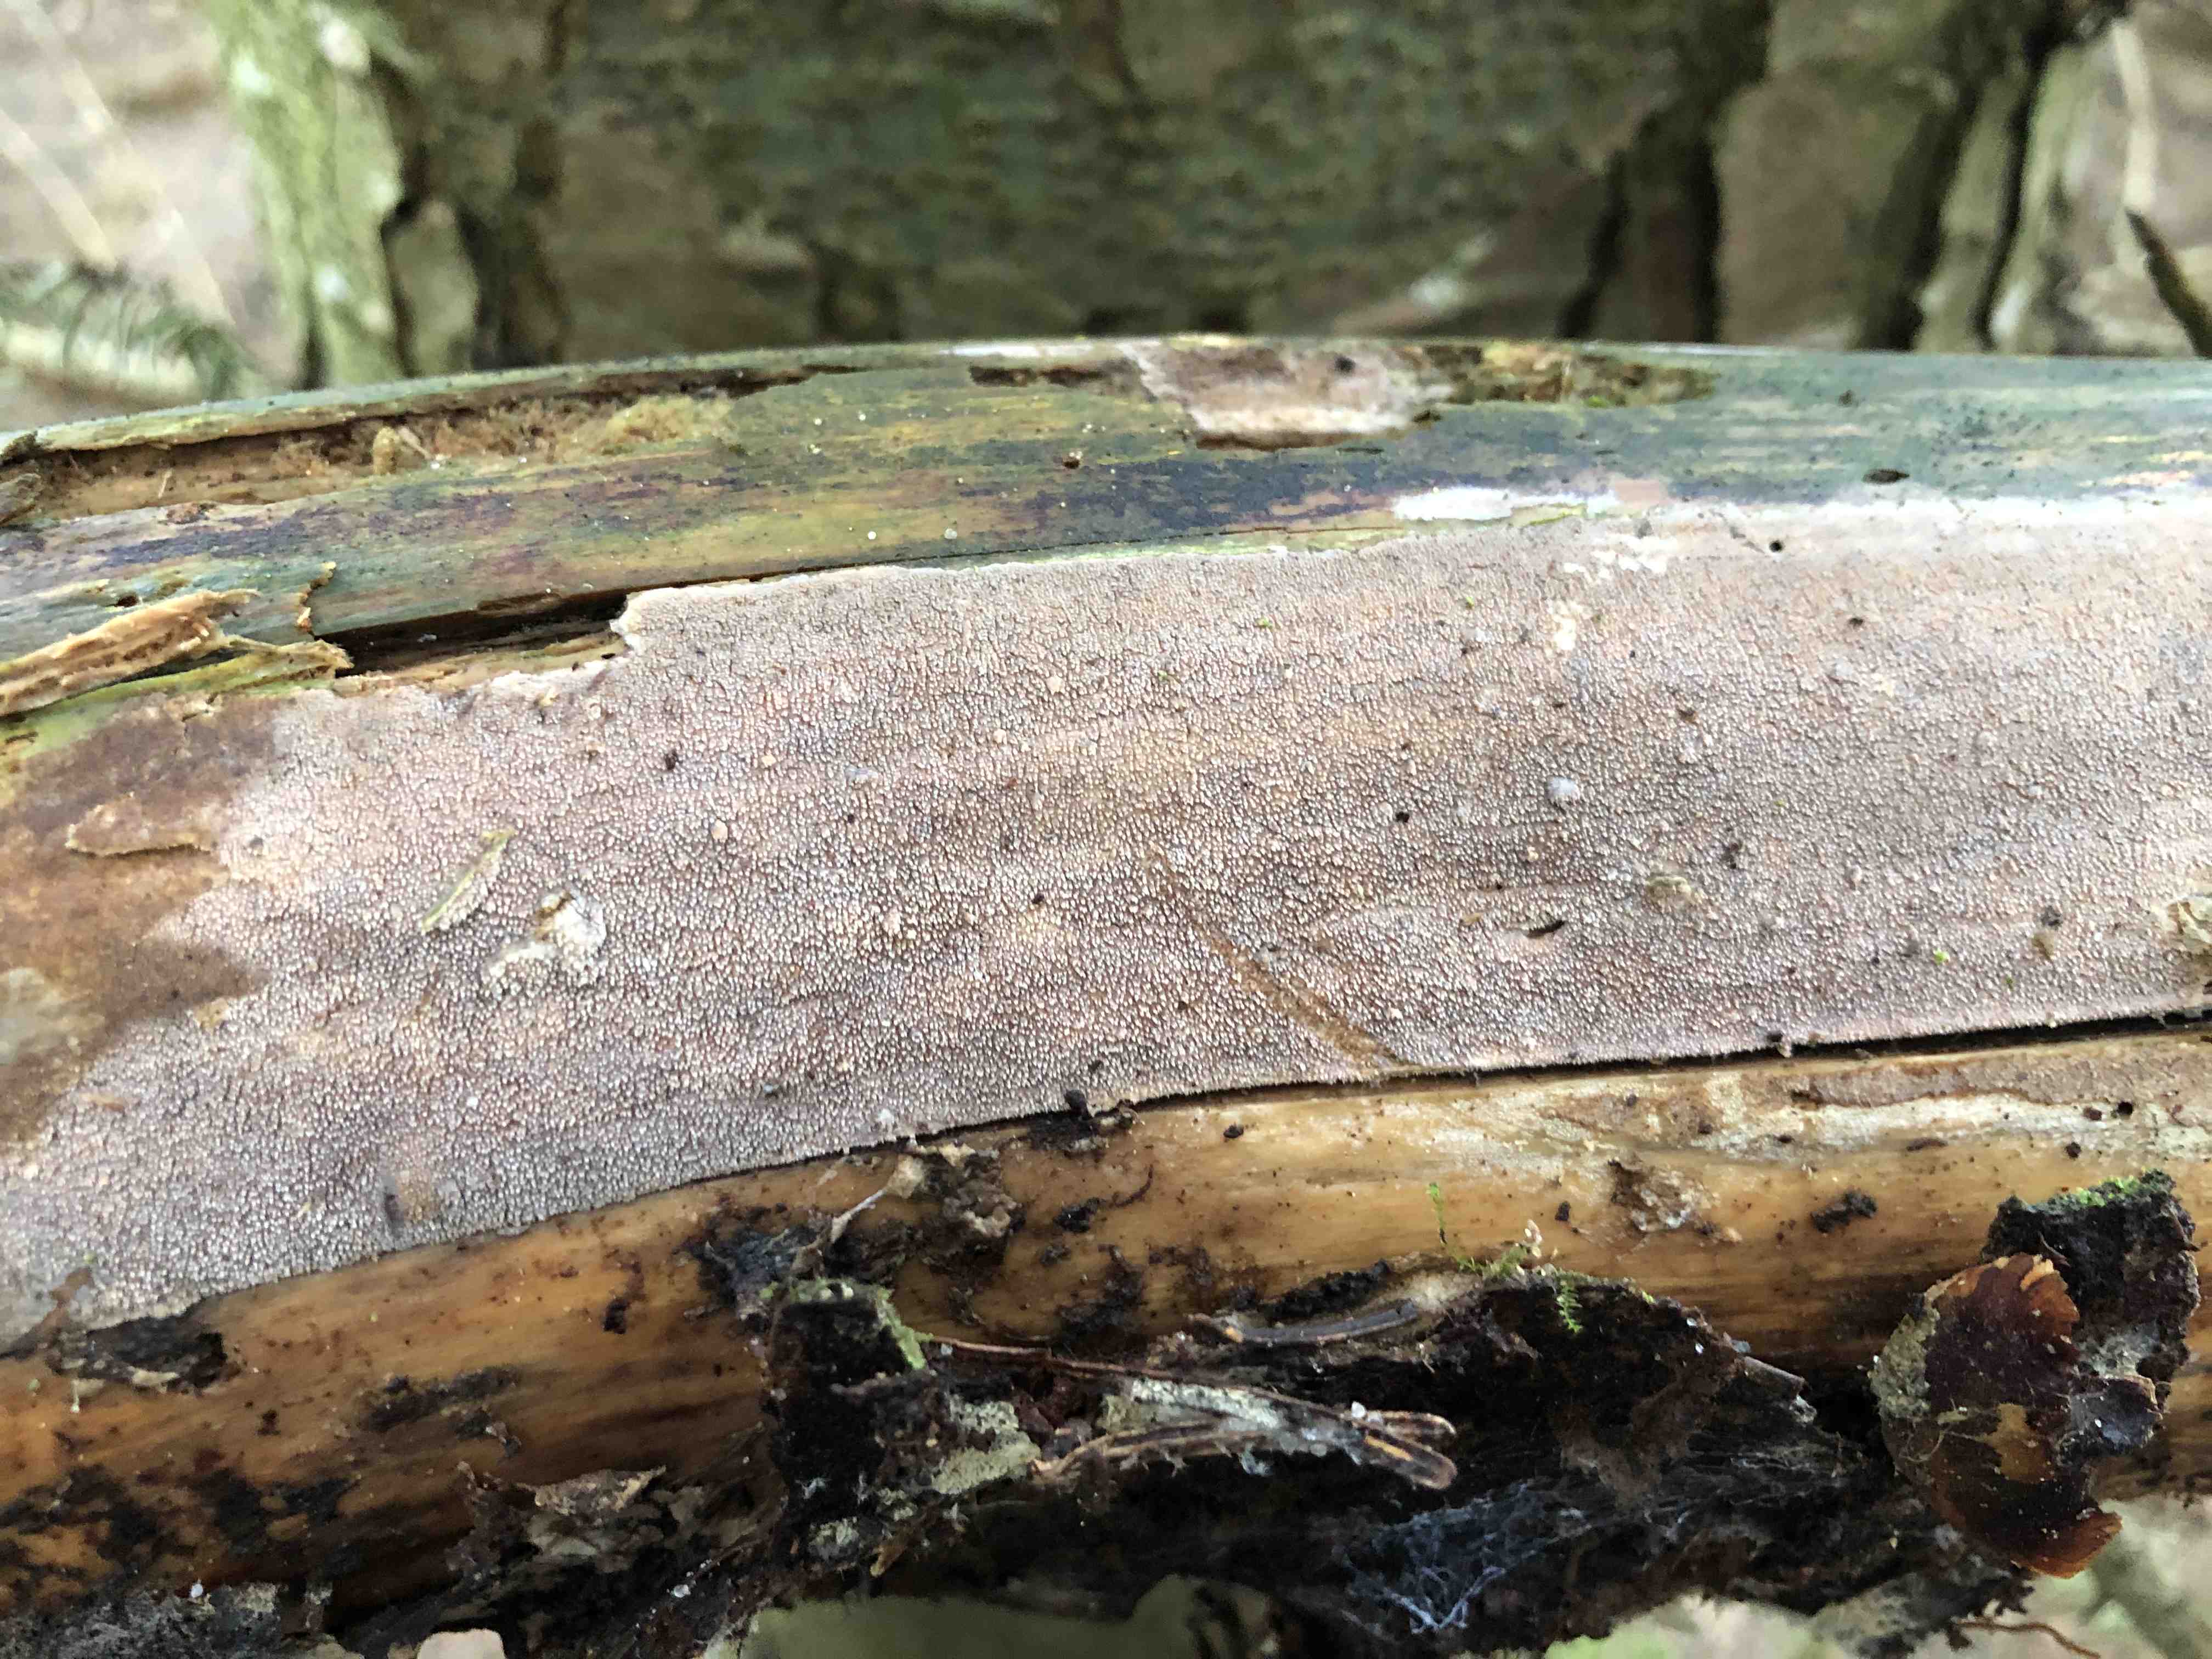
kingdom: Fungi
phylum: Basidiomycota
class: Agaricomycetes
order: Hymenochaetales
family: Rickenellaceae
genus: Resinicium
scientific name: Resinicium bicolor
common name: almindelig vokstand
